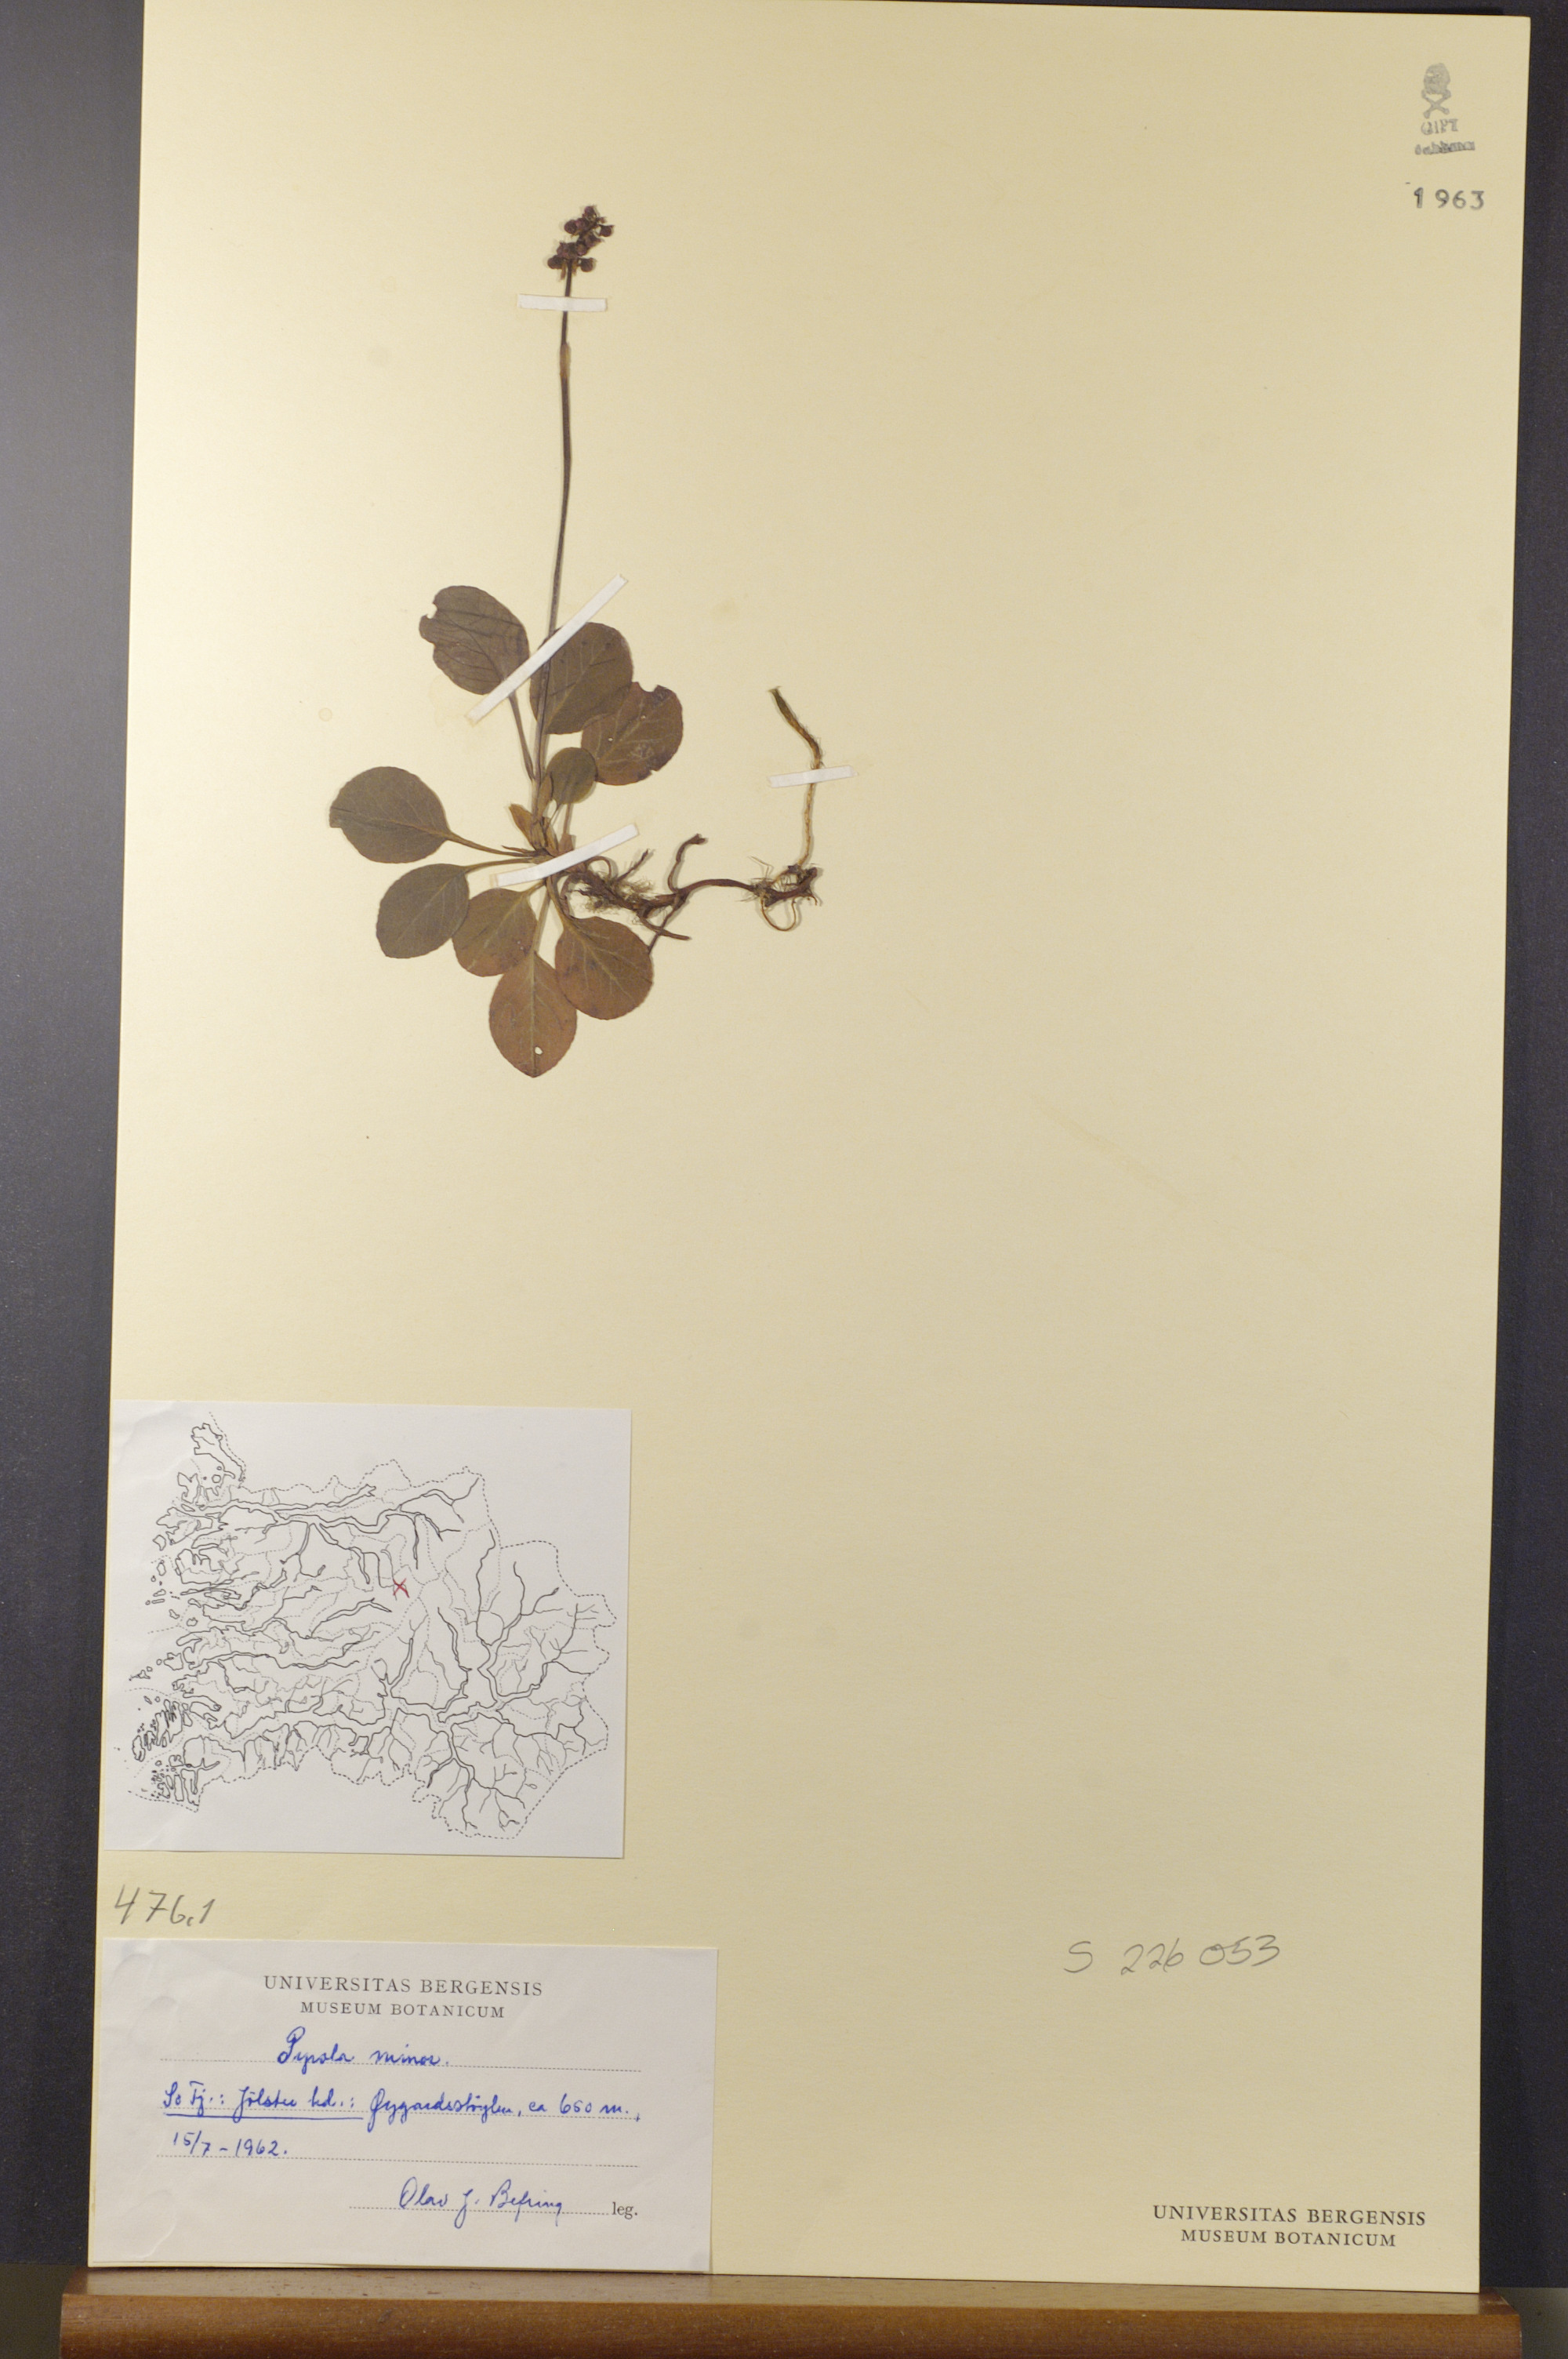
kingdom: Plantae
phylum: Tracheophyta
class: Magnoliopsida
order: Ericales
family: Ericaceae
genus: Pyrola
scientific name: Pyrola minor
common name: Common wintergreen
